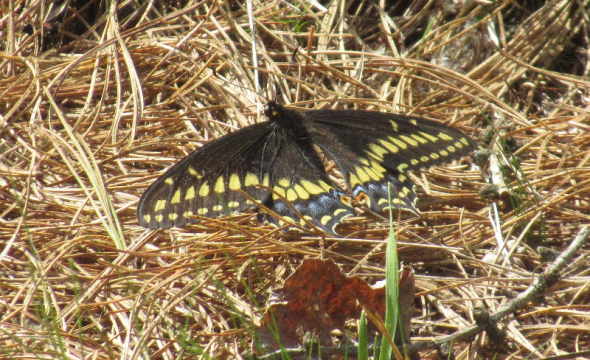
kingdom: Animalia
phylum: Arthropoda
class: Insecta
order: Lepidoptera
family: Papilionidae
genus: Papilio
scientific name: Papilio polyxenes
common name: Black Swallowtail
